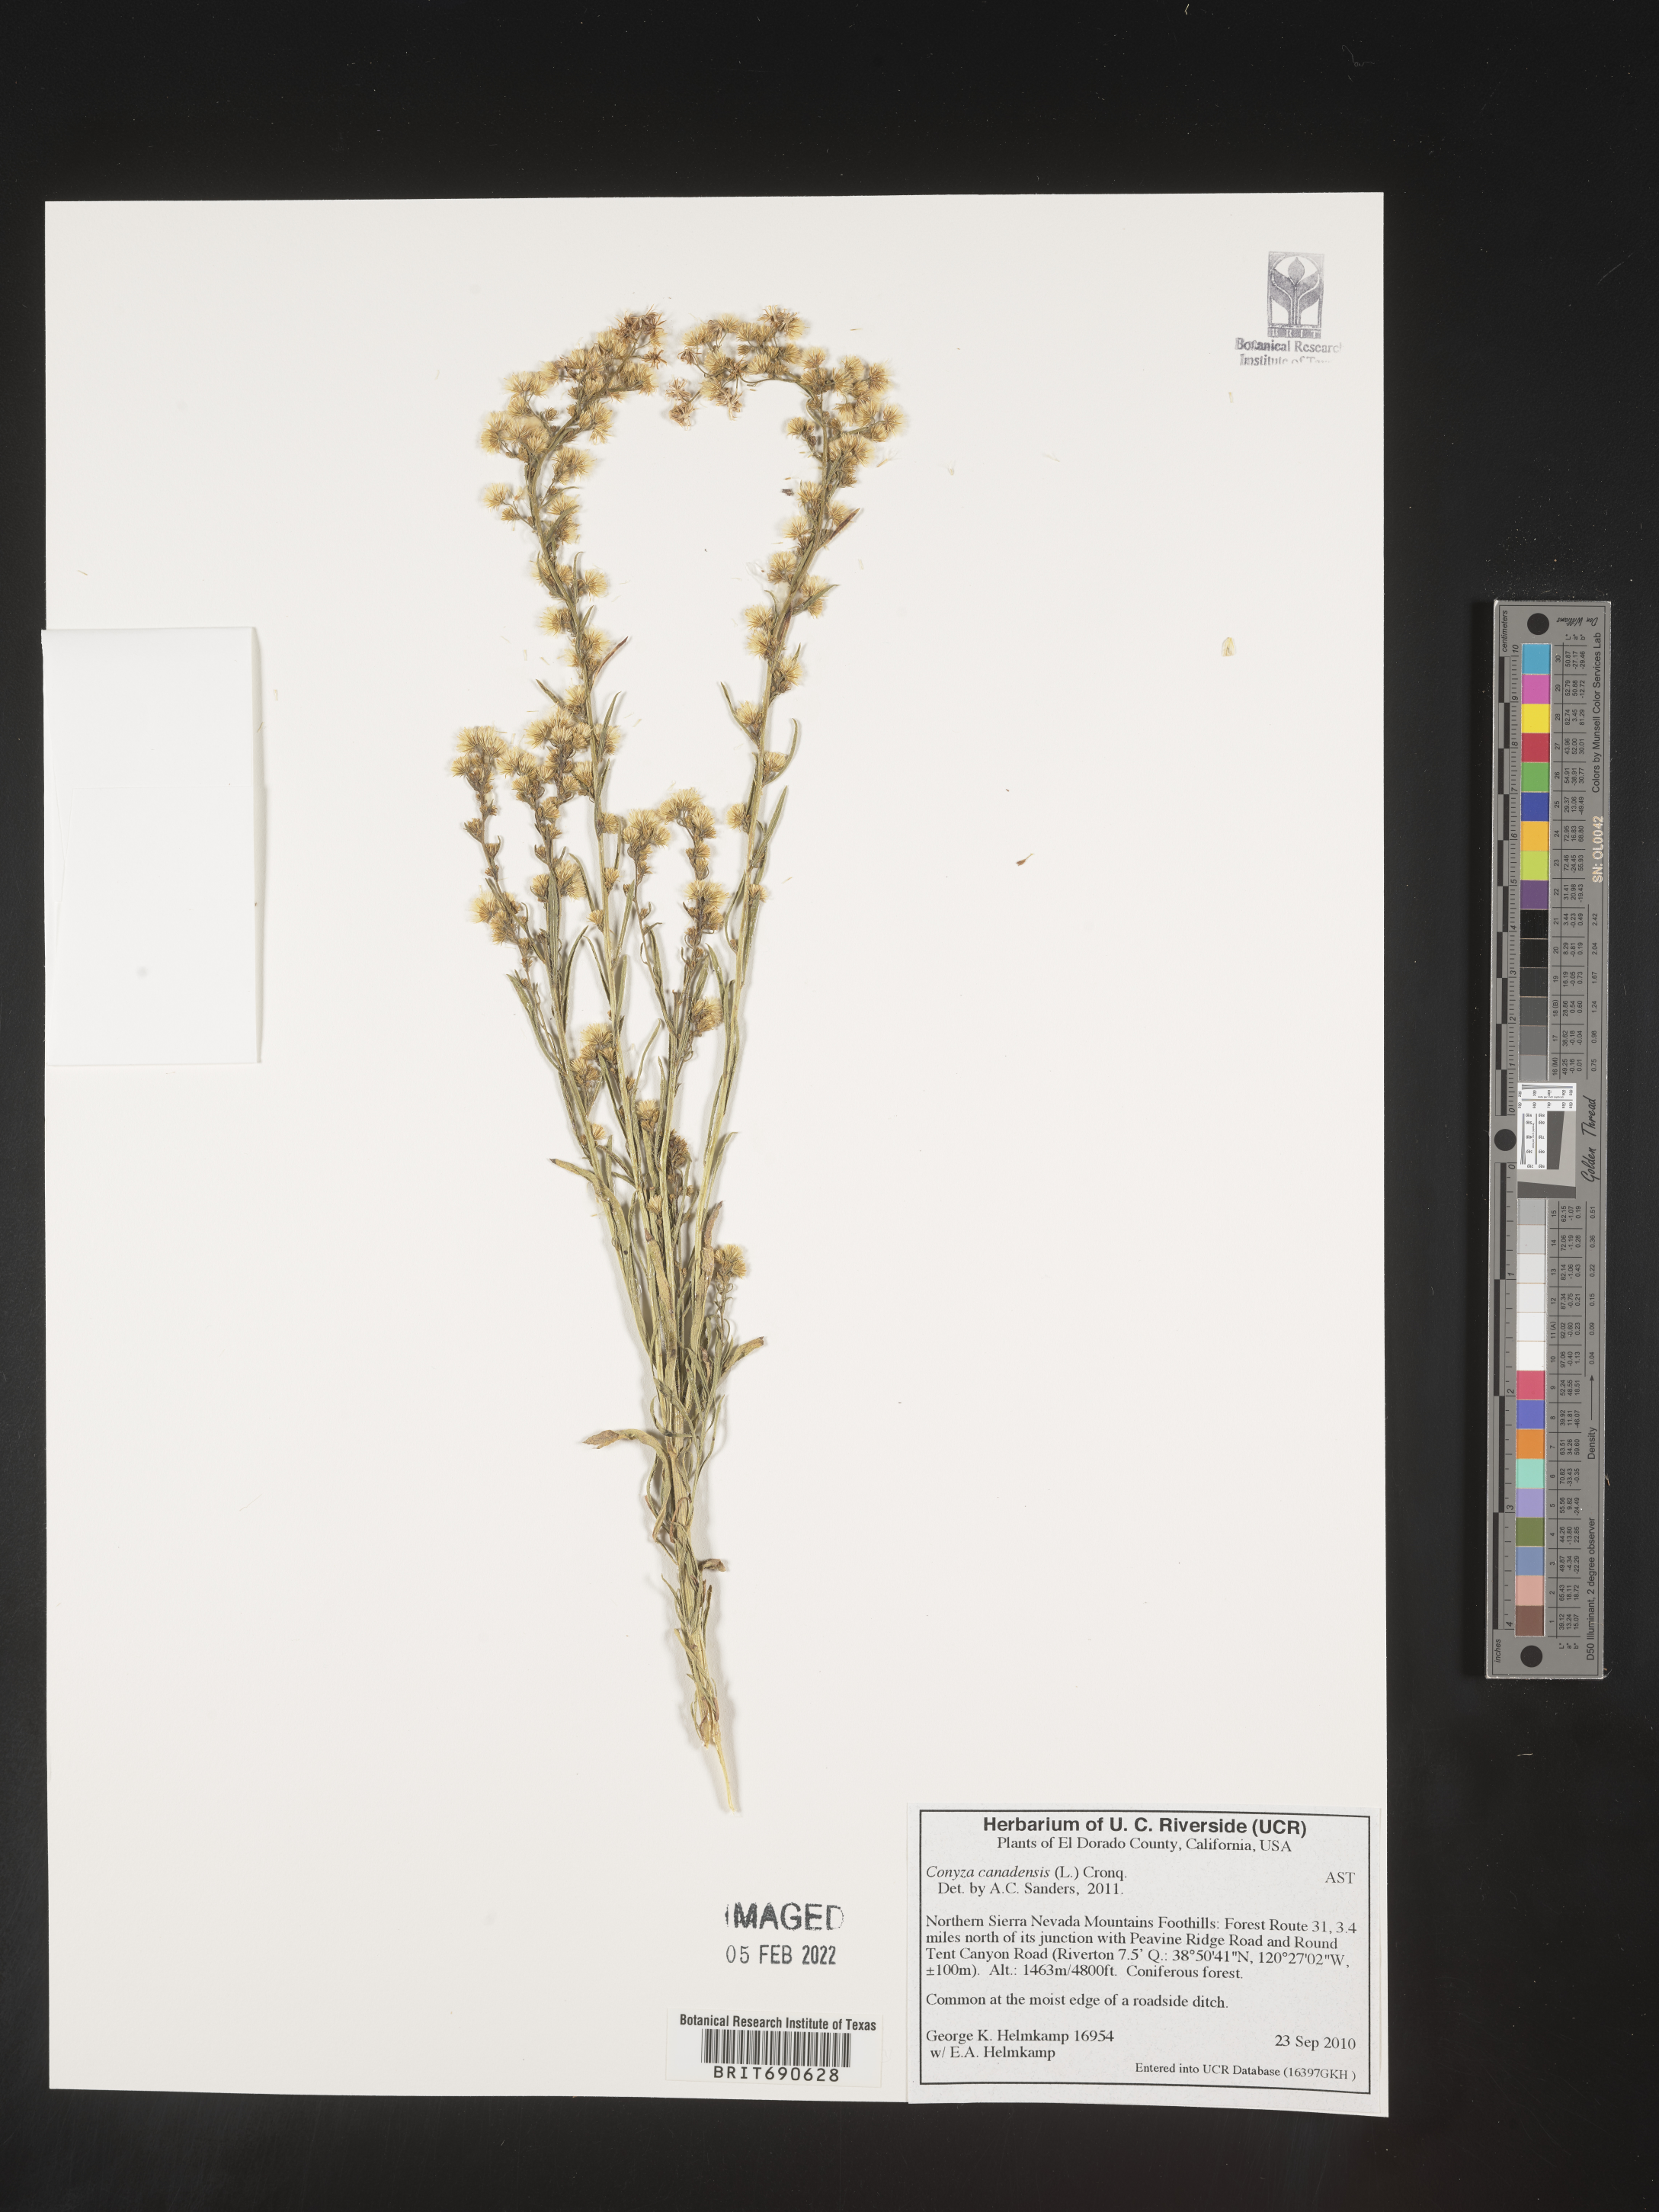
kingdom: Plantae
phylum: Tracheophyta
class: Magnoliopsida
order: Asterales
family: Asteraceae
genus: Erigeron
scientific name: Erigeron canadensis
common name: Canadian fleabane
